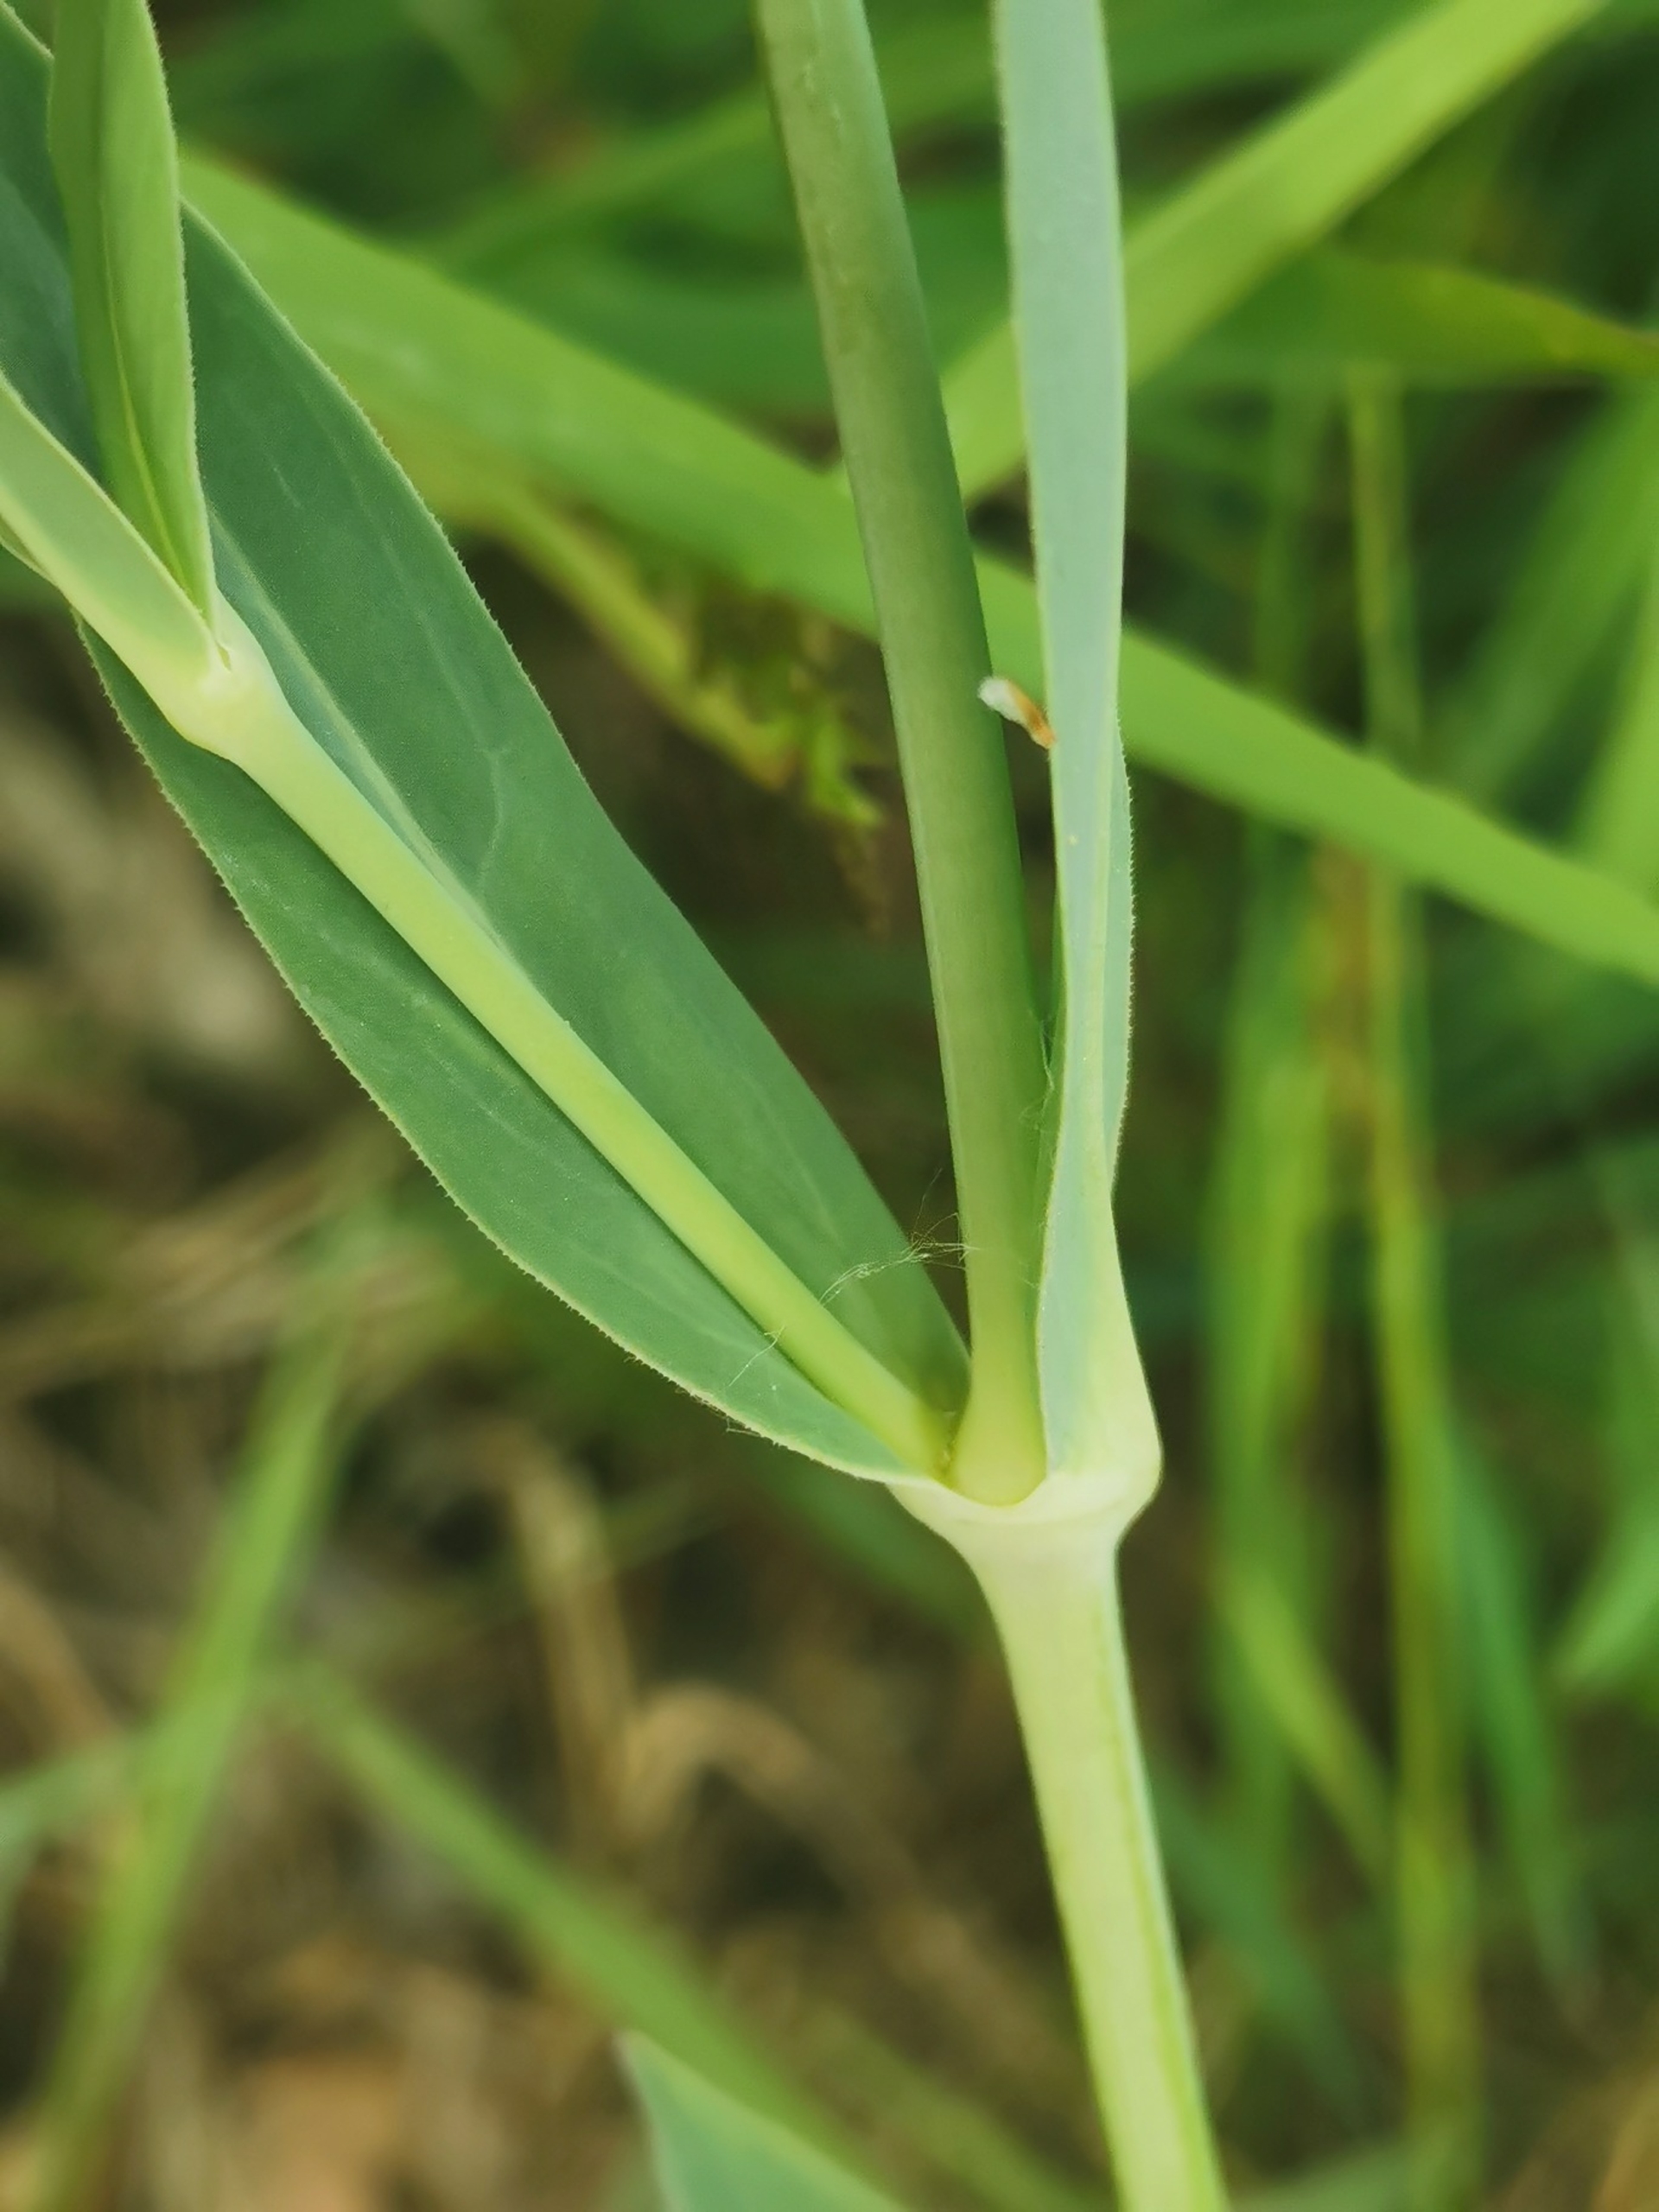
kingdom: Plantae
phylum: Tracheophyta
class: Magnoliopsida
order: Caryophyllales
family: Caryophyllaceae
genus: Silene
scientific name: Silene vulgaris
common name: Blæresmælde
